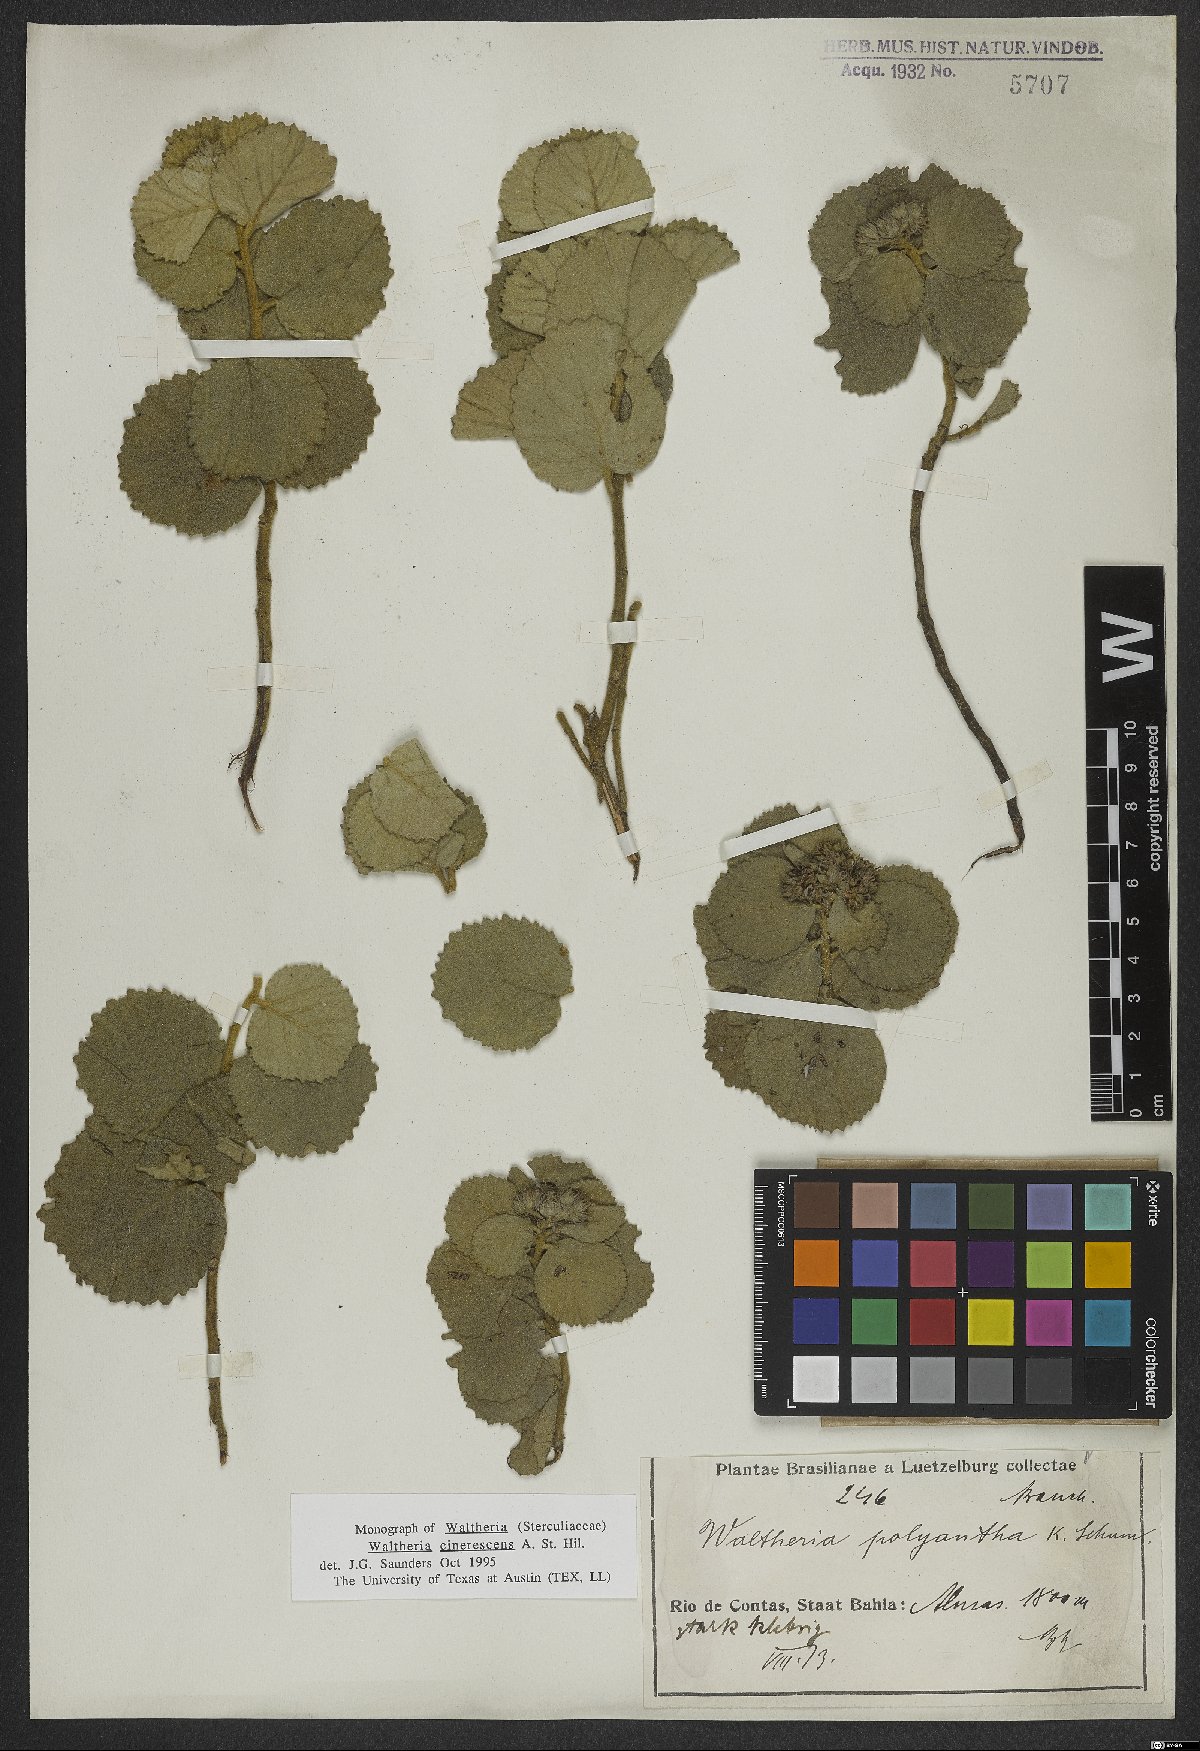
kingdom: Plantae
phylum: Tracheophyta
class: Magnoliopsida
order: Malvales
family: Malvaceae
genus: Waltheria
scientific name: Waltheria cinerescens
